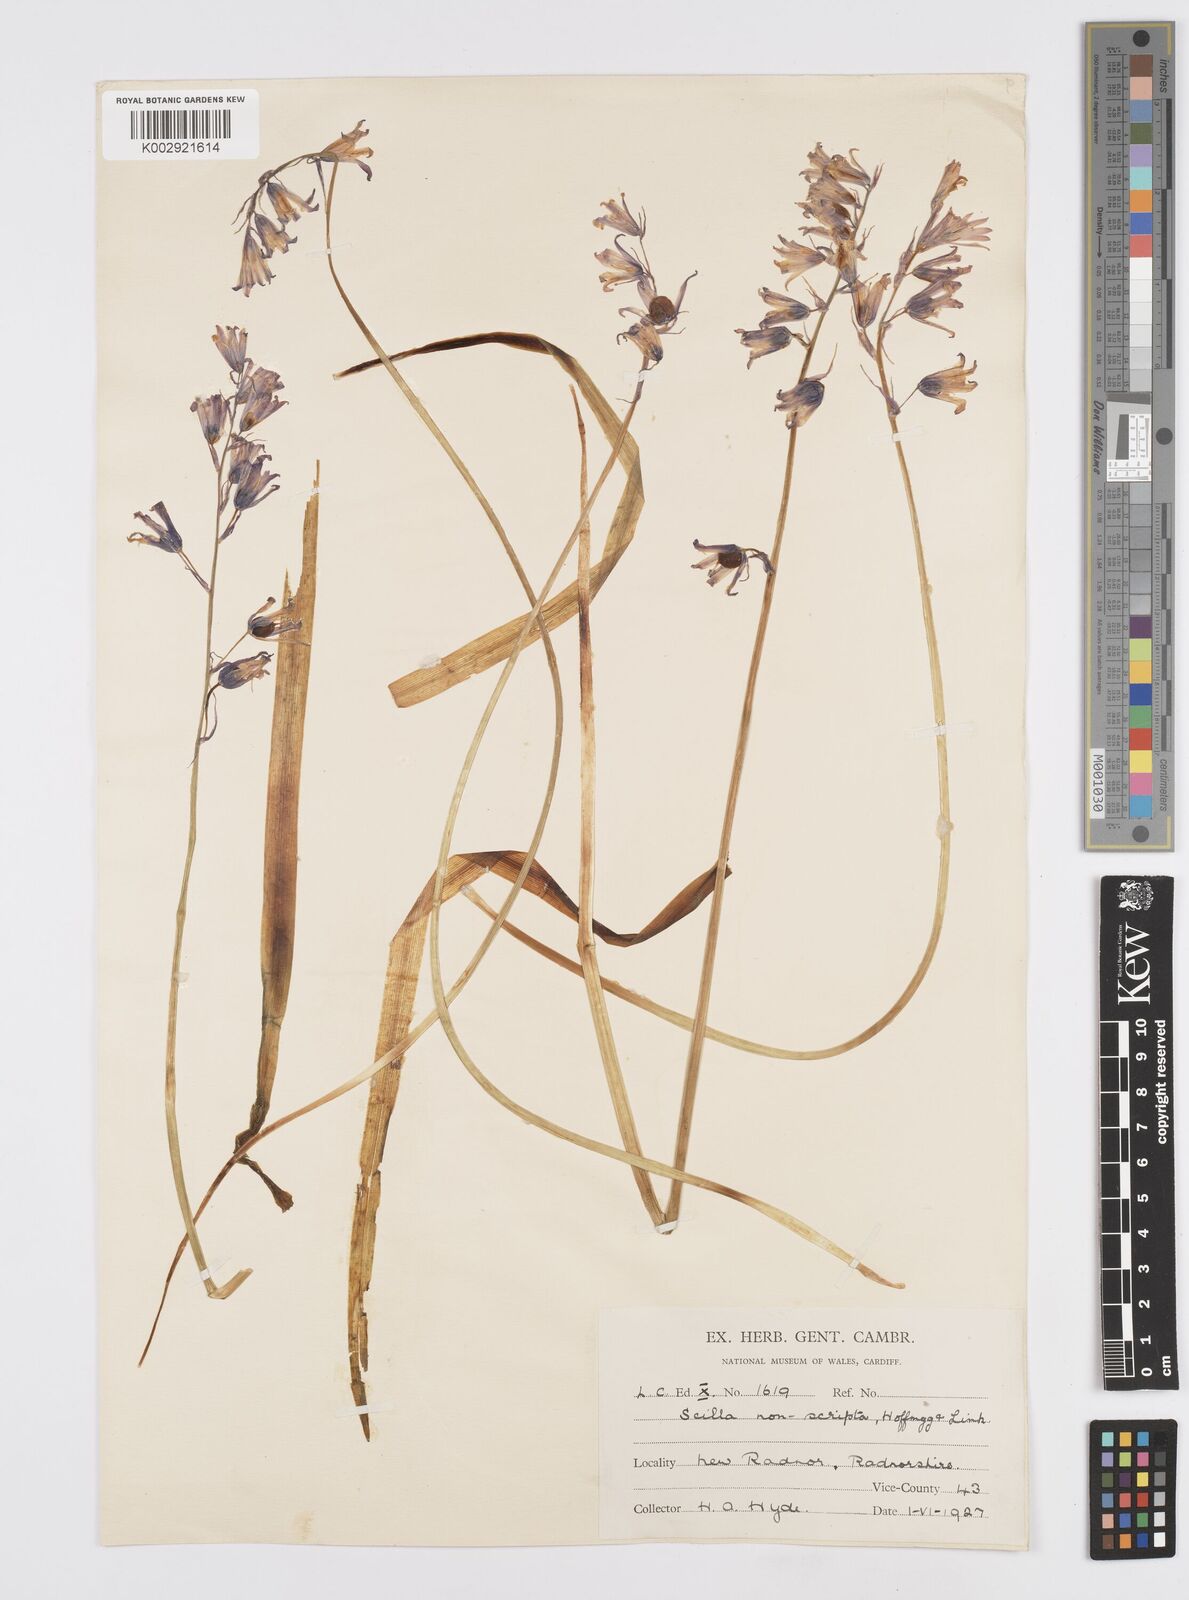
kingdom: Plantae
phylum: Tracheophyta
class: Liliopsida
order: Asparagales
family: Asparagaceae
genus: Hyacinthoides
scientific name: Hyacinthoides non-scripta
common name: Bluebell
